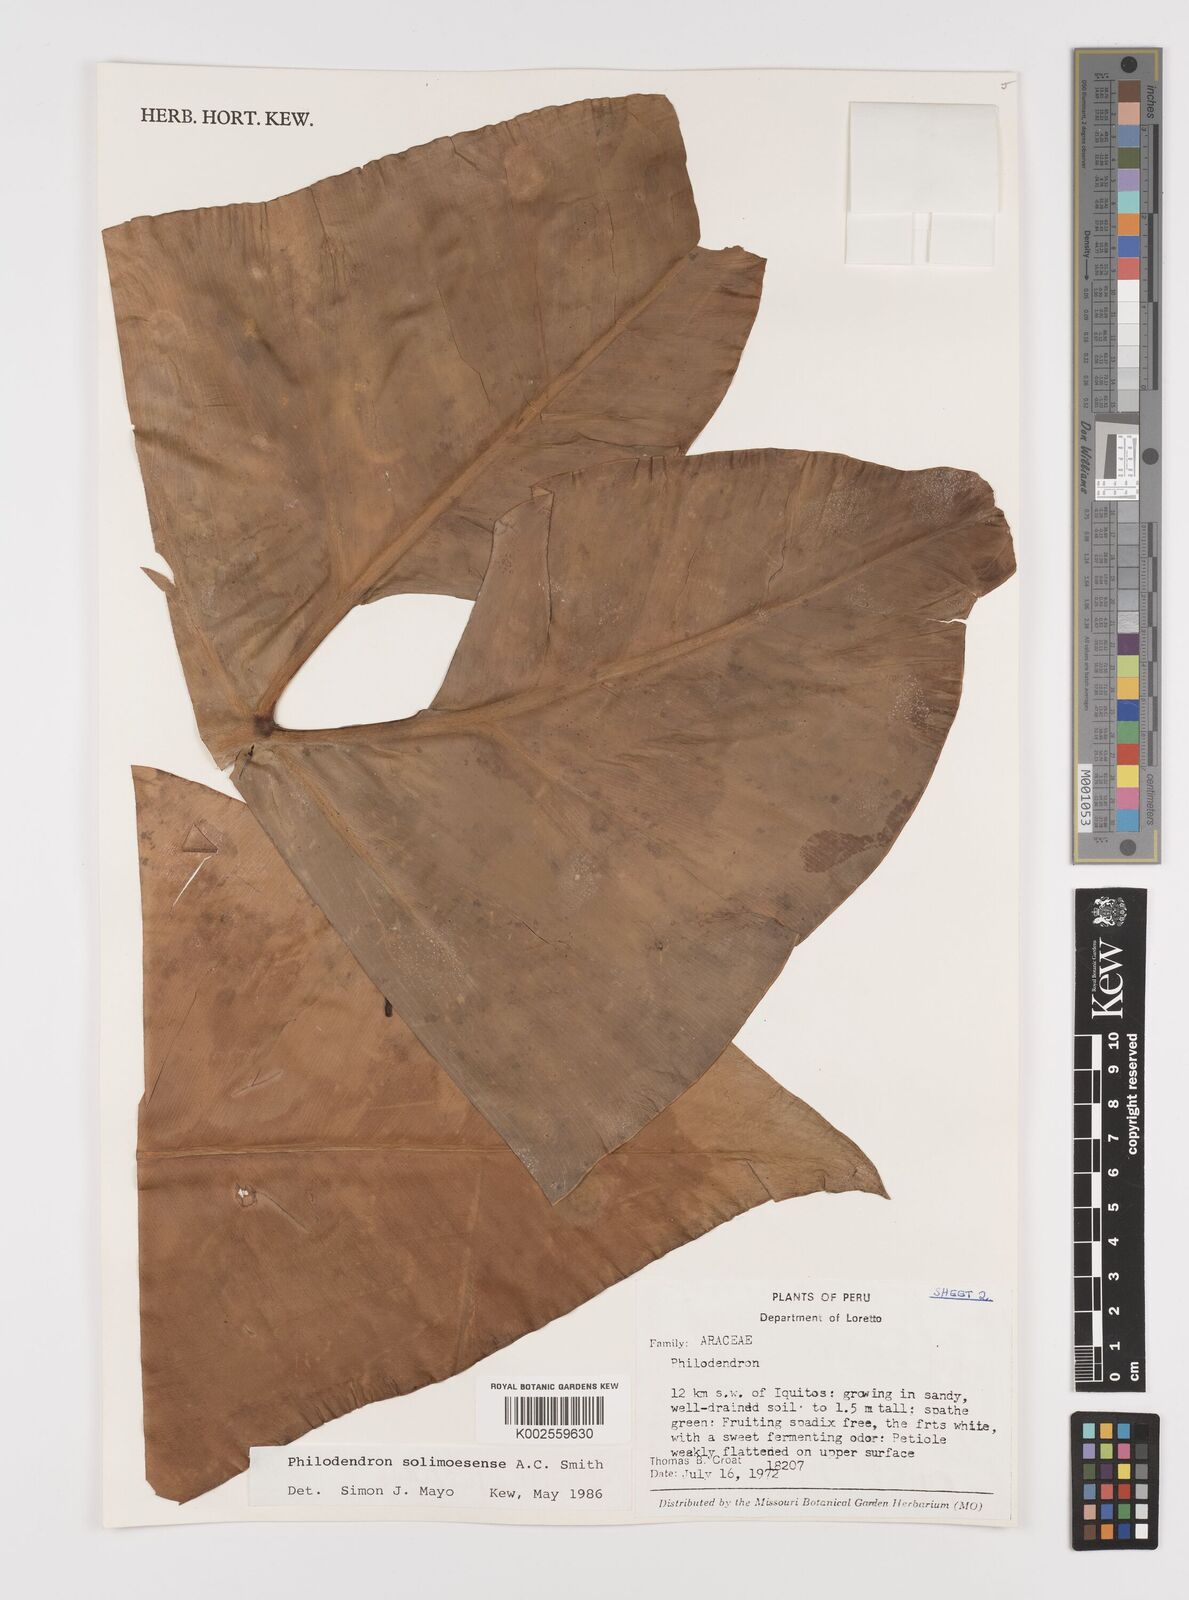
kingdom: Plantae
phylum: Tracheophyta
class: Liliopsida
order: Alismatales
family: Araceae
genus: Thaumatophyllum
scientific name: Thaumatophyllum solimoesense
